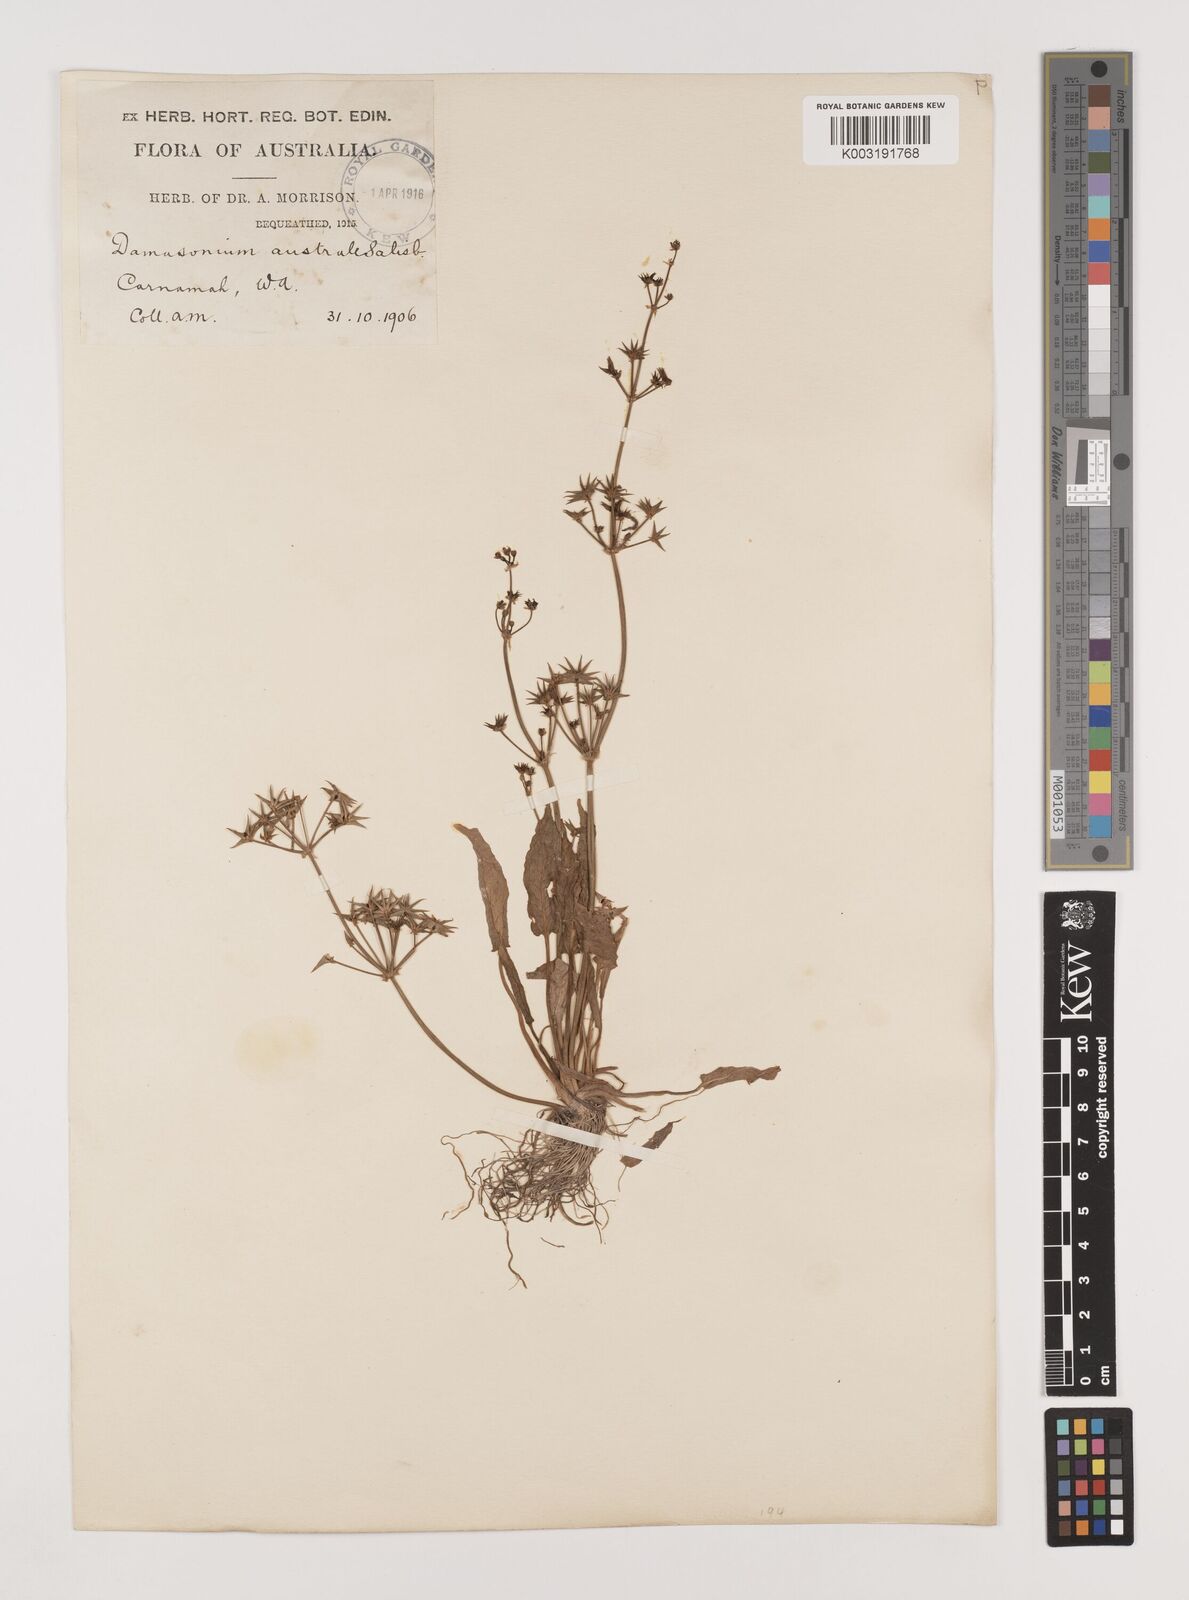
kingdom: Plantae
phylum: Tracheophyta
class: Liliopsida
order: Alismatales
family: Alismataceae
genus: Damasonium
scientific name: Damasonium minus
